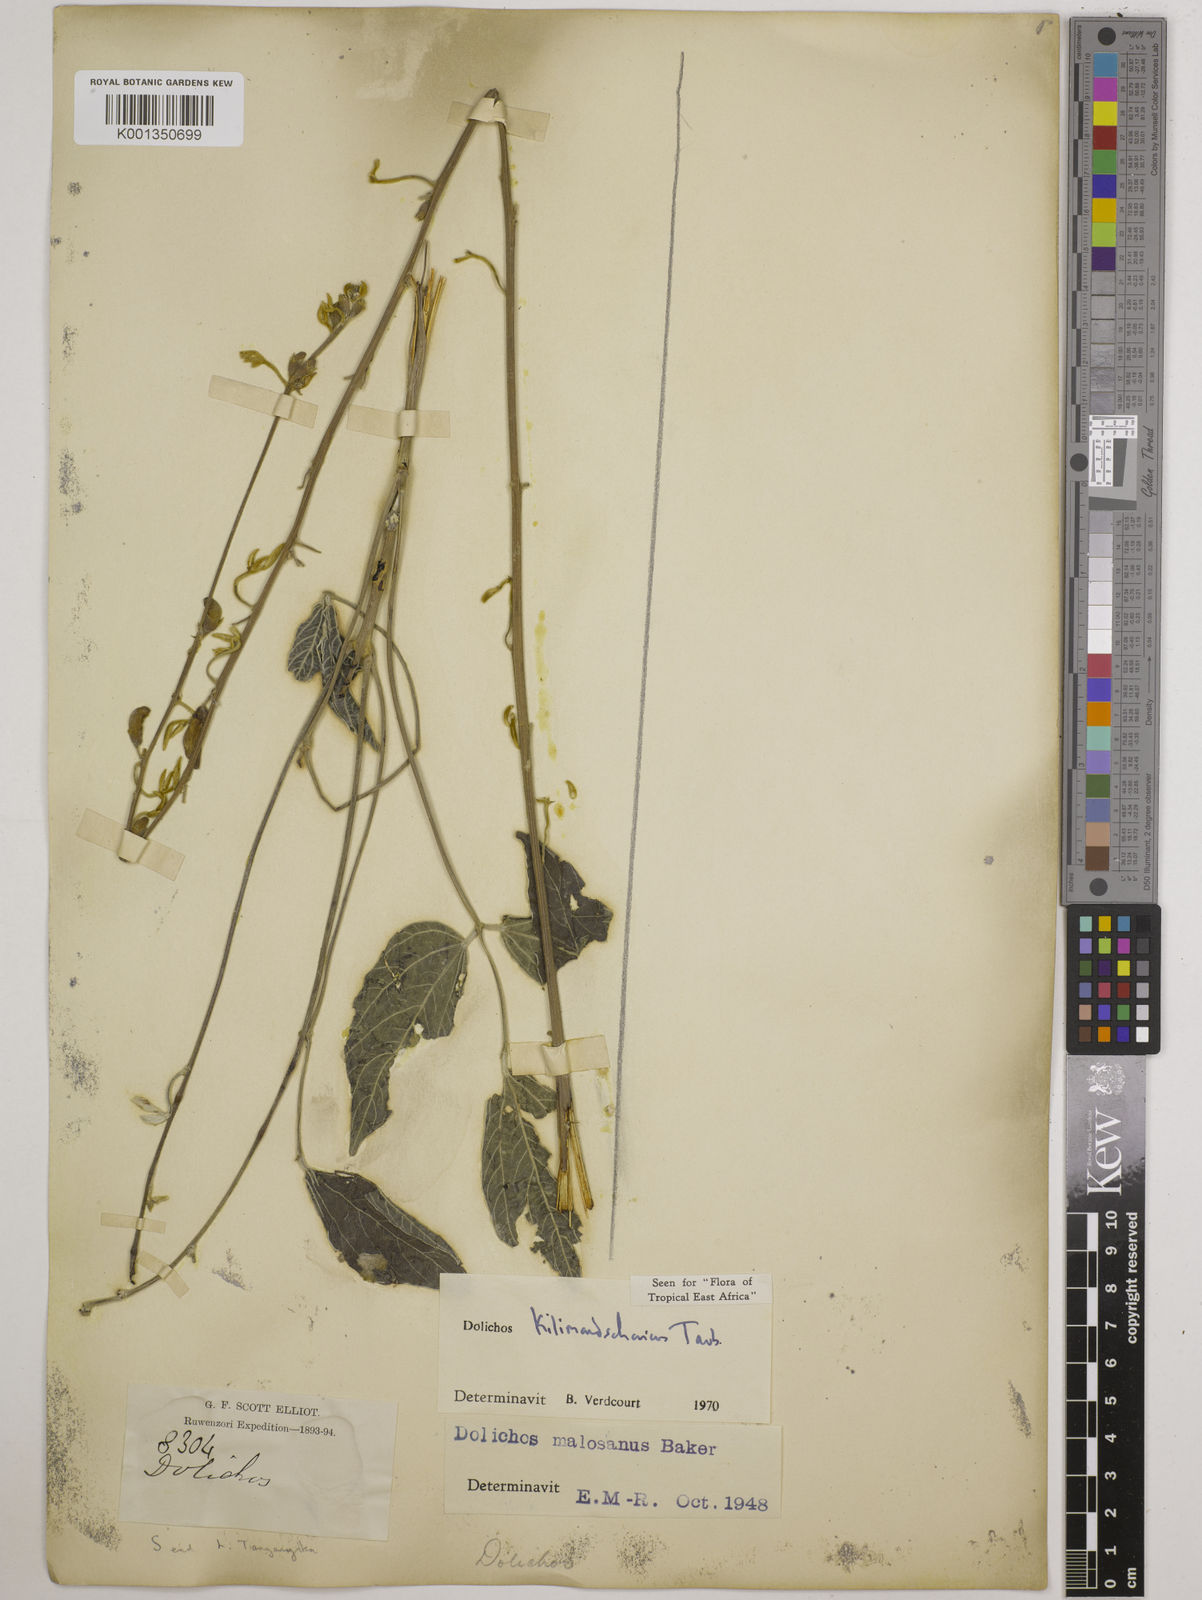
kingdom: Plantae
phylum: Tracheophyta
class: Magnoliopsida
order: Fabales
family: Fabaceae
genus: Dolichos
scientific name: Dolichos kilimandscharicus
